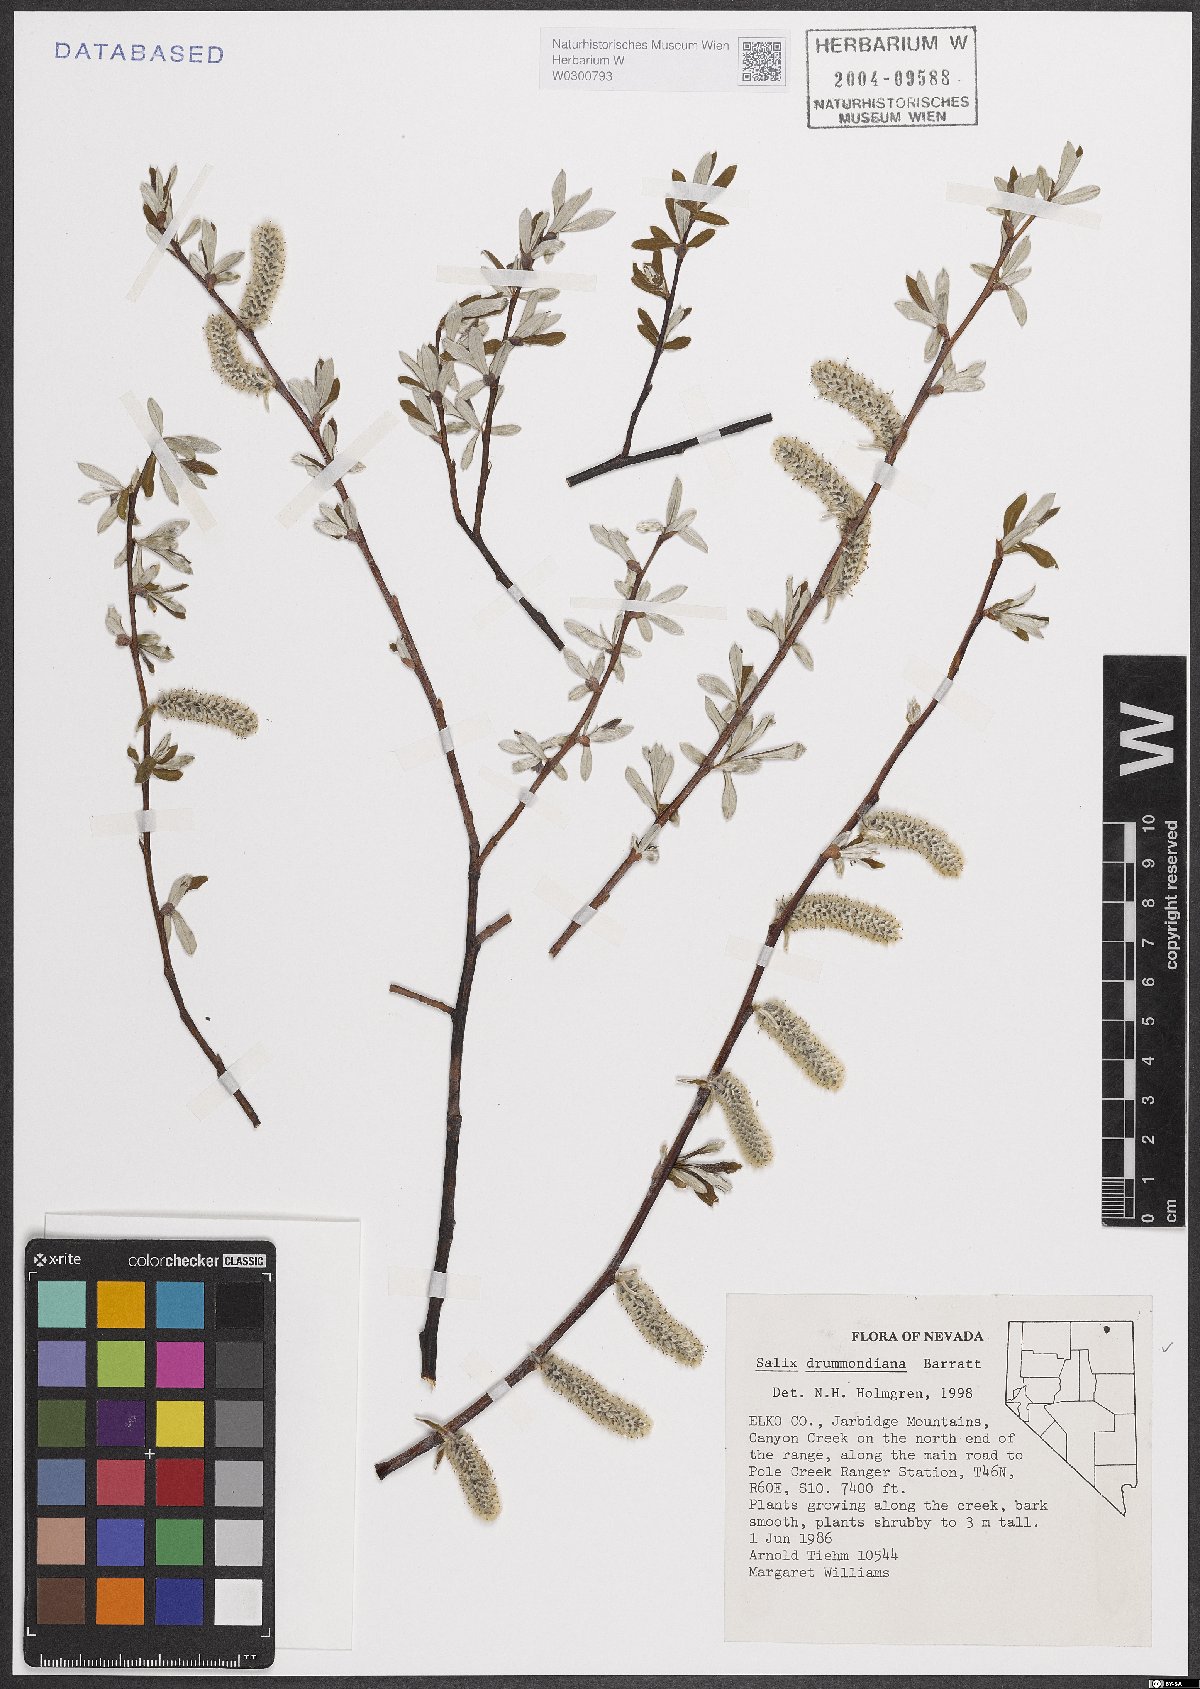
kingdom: Plantae
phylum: Tracheophyta
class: Magnoliopsida
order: Malpighiales
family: Salicaceae
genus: Salix
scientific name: Salix drummondiana
